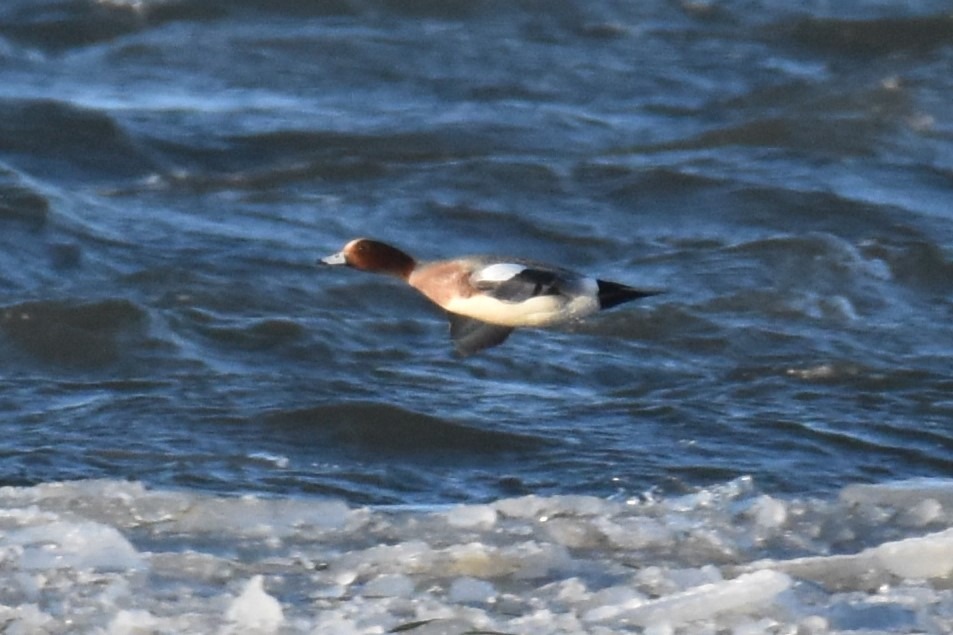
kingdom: Animalia
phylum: Chordata
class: Aves
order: Anseriformes
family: Anatidae
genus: Mareca
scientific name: Mareca penelope
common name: Pibeand
